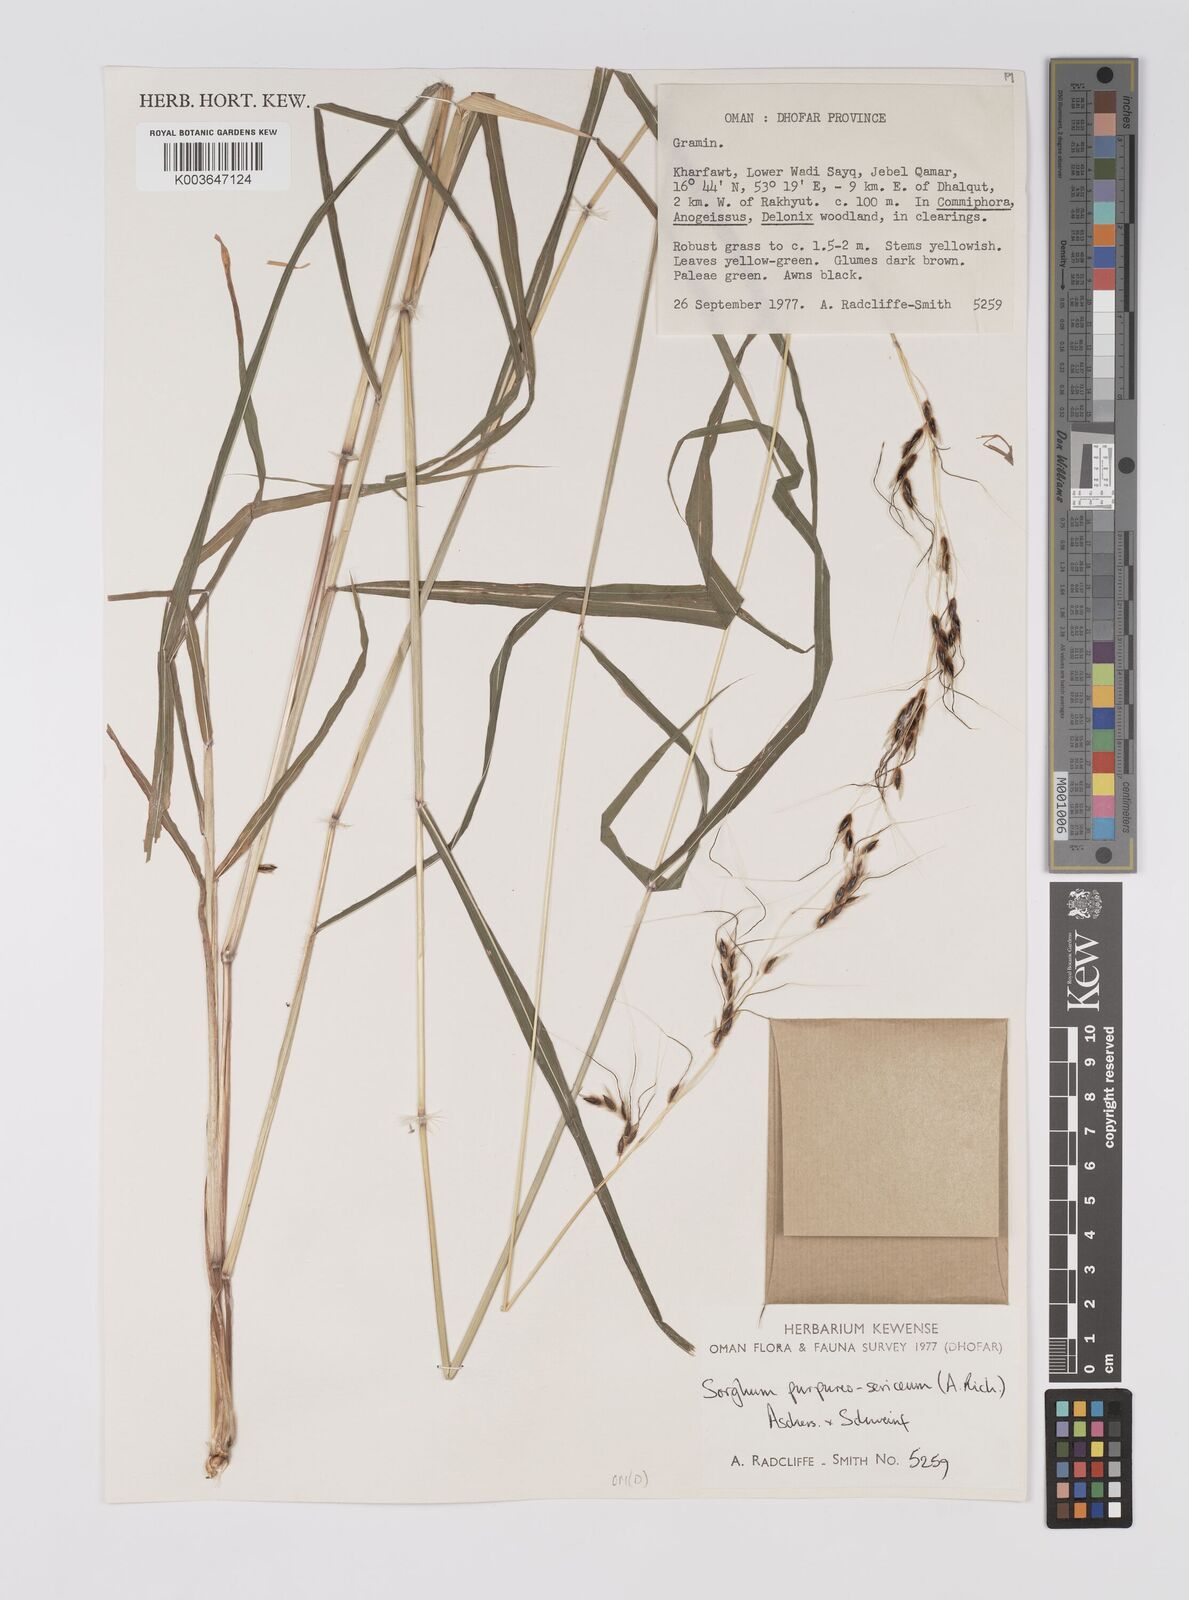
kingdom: Plantae
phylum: Tracheophyta
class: Liliopsida
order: Poales
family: Poaceae
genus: Sarga
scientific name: Sarga purpureosericea
